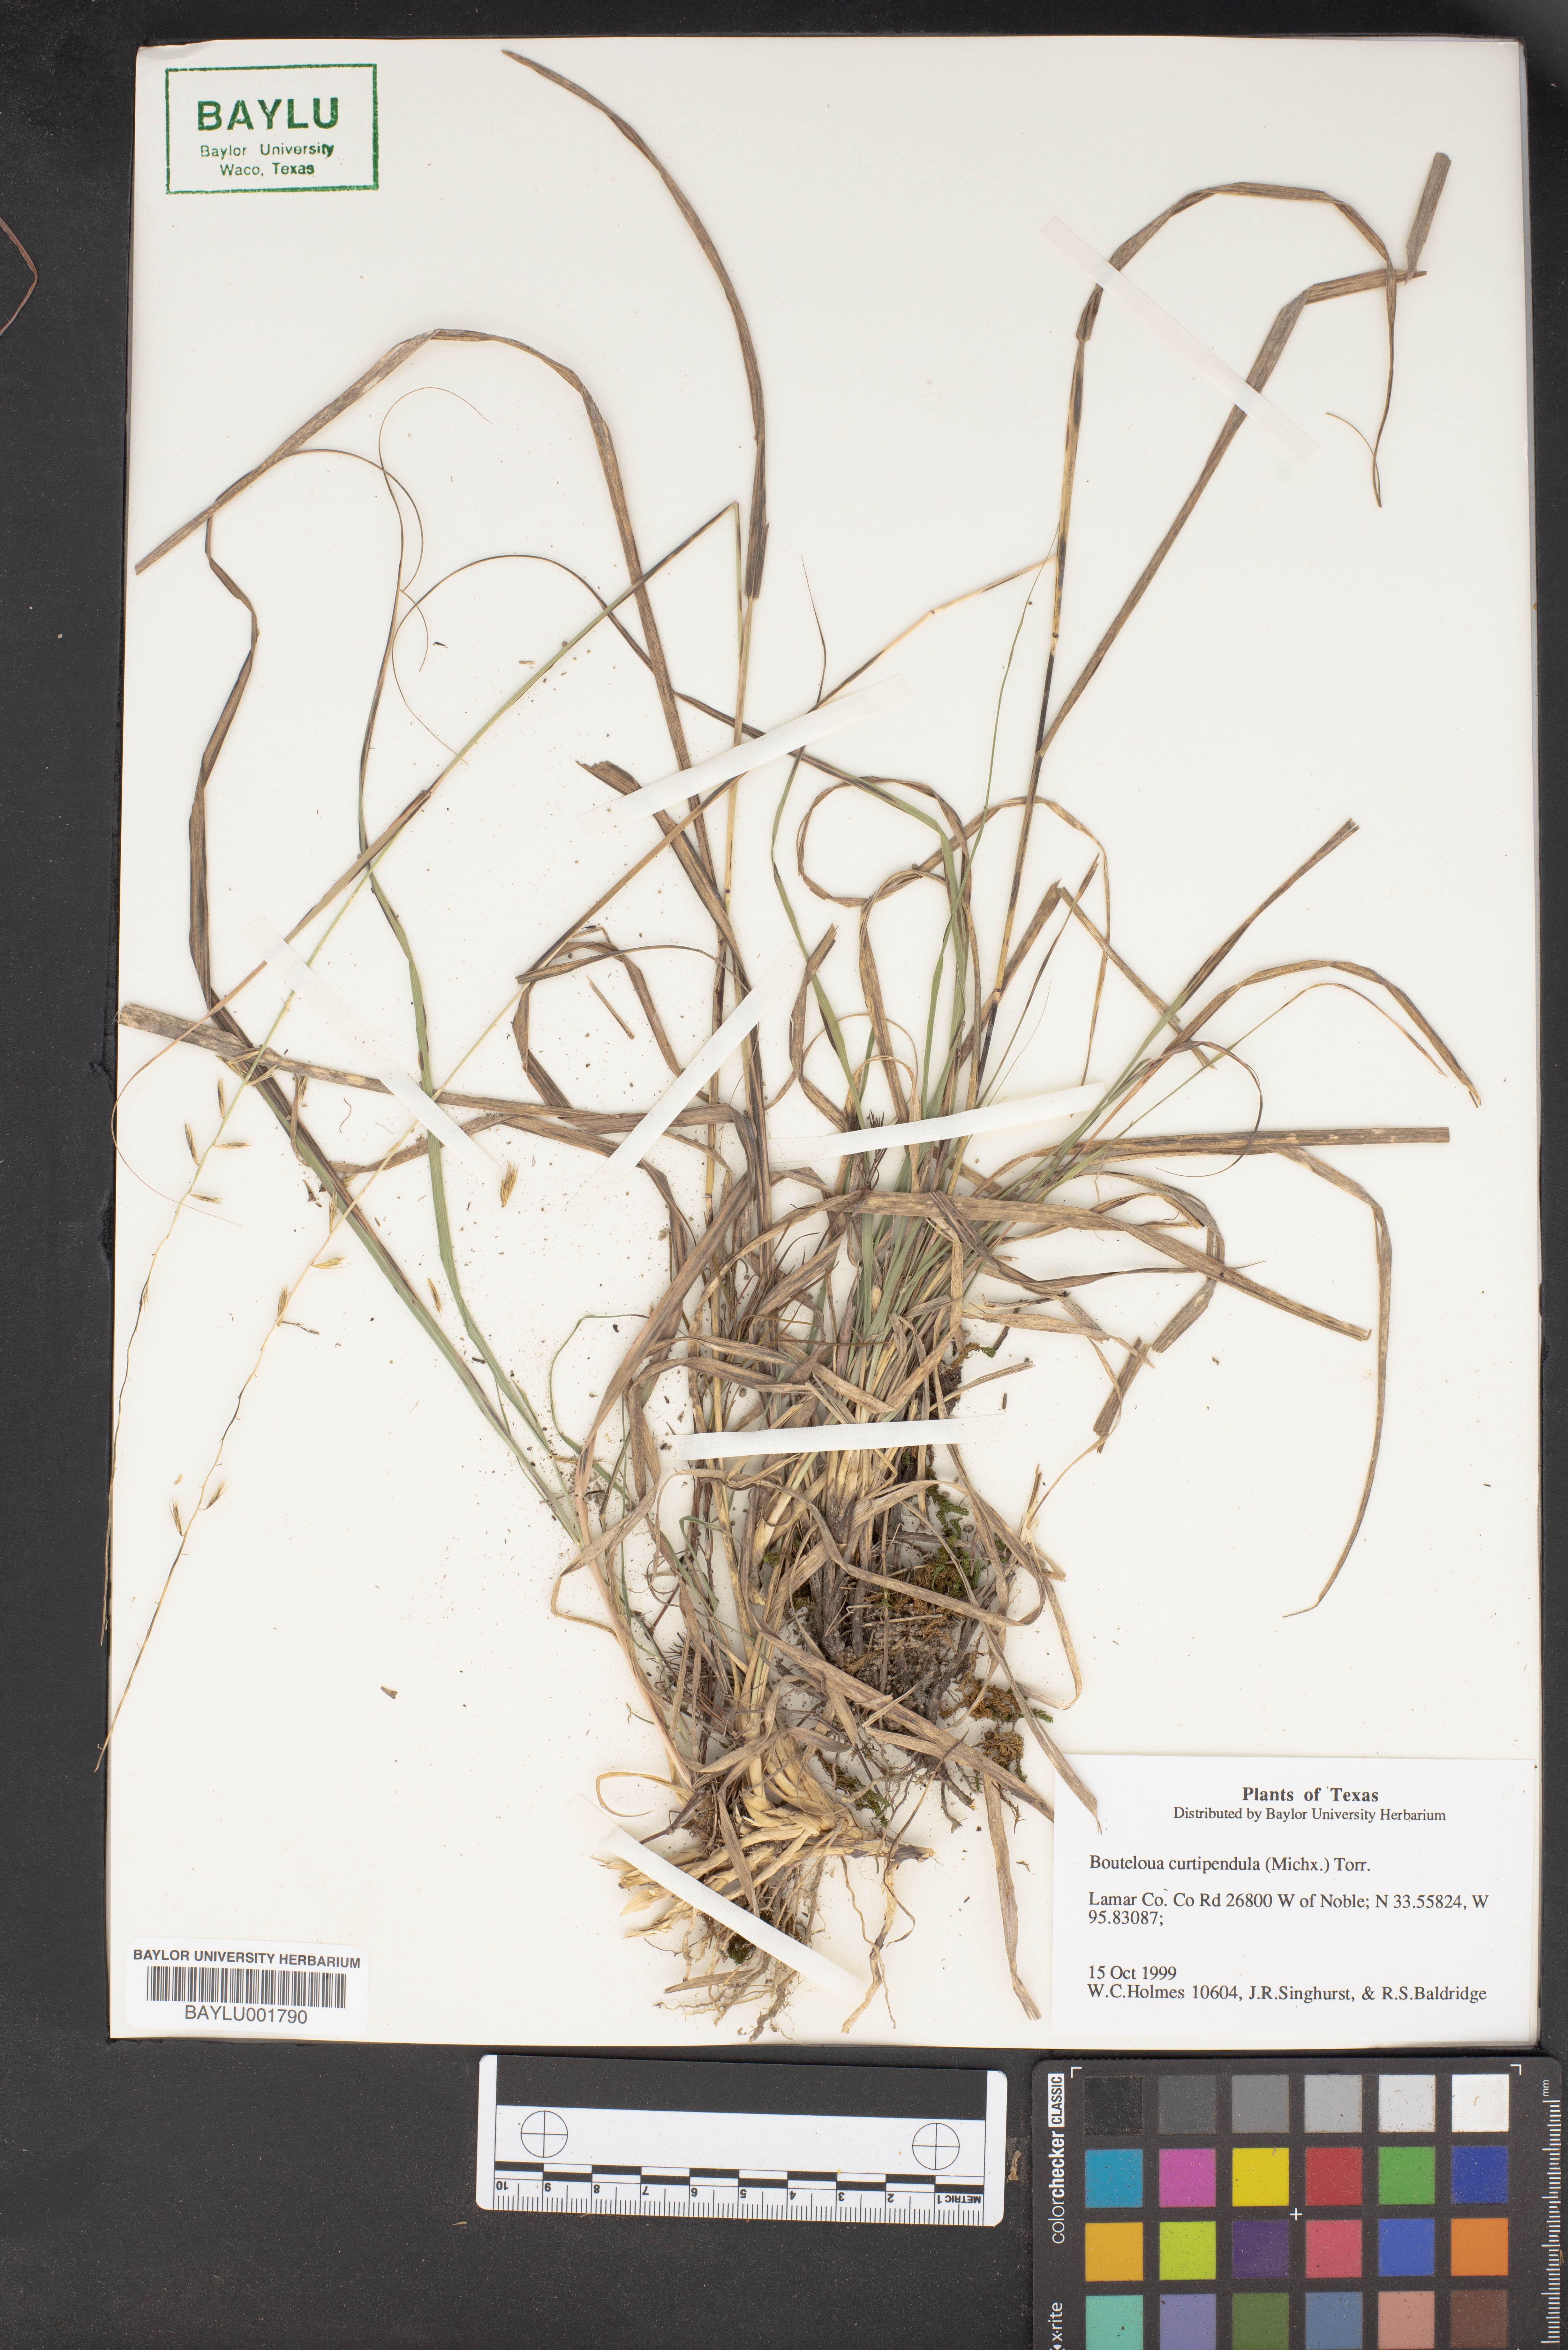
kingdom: Plantae
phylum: Tracheophyta
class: Liliopsida
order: Poales
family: Poaceae
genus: Bouteloua
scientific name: Bouteloua curtipendula
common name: Side-oats grama
